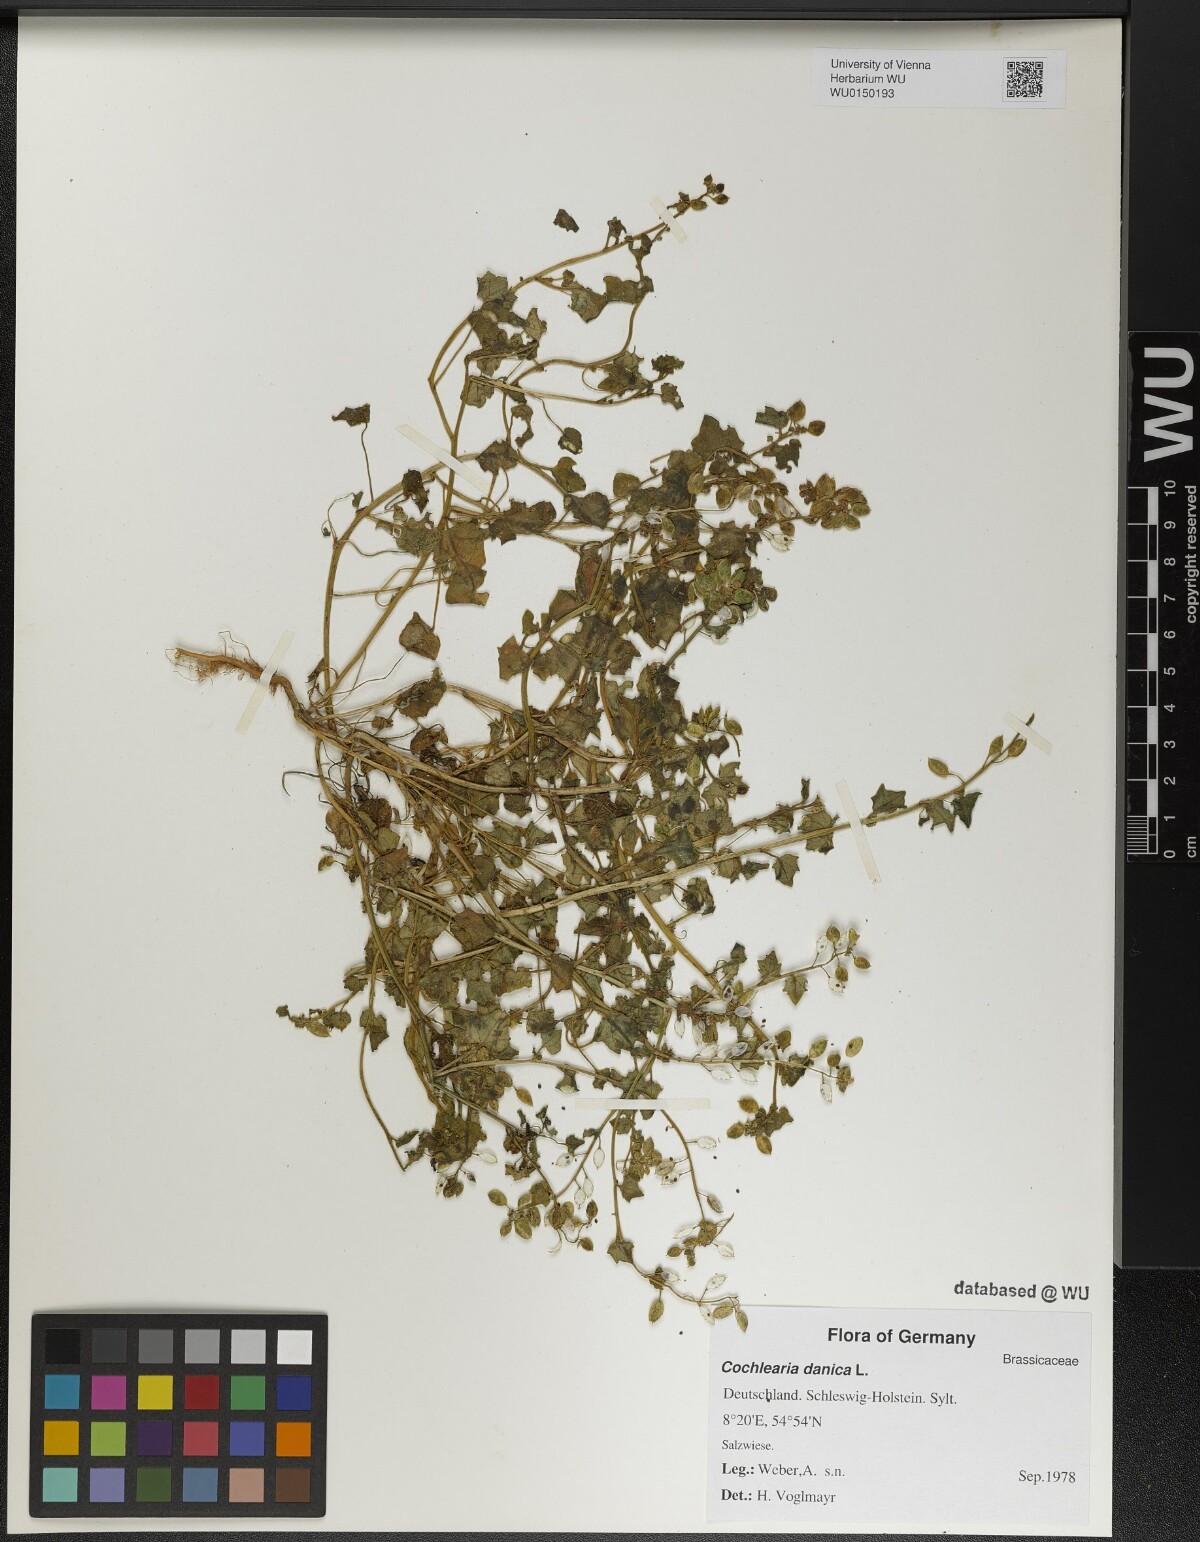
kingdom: Plantae
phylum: Tracheophyta
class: Magnoliopsida
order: Brassicales
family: Brassicaceae
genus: Cochlearia
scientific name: Cochlearia danica
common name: Early scurvygrass
